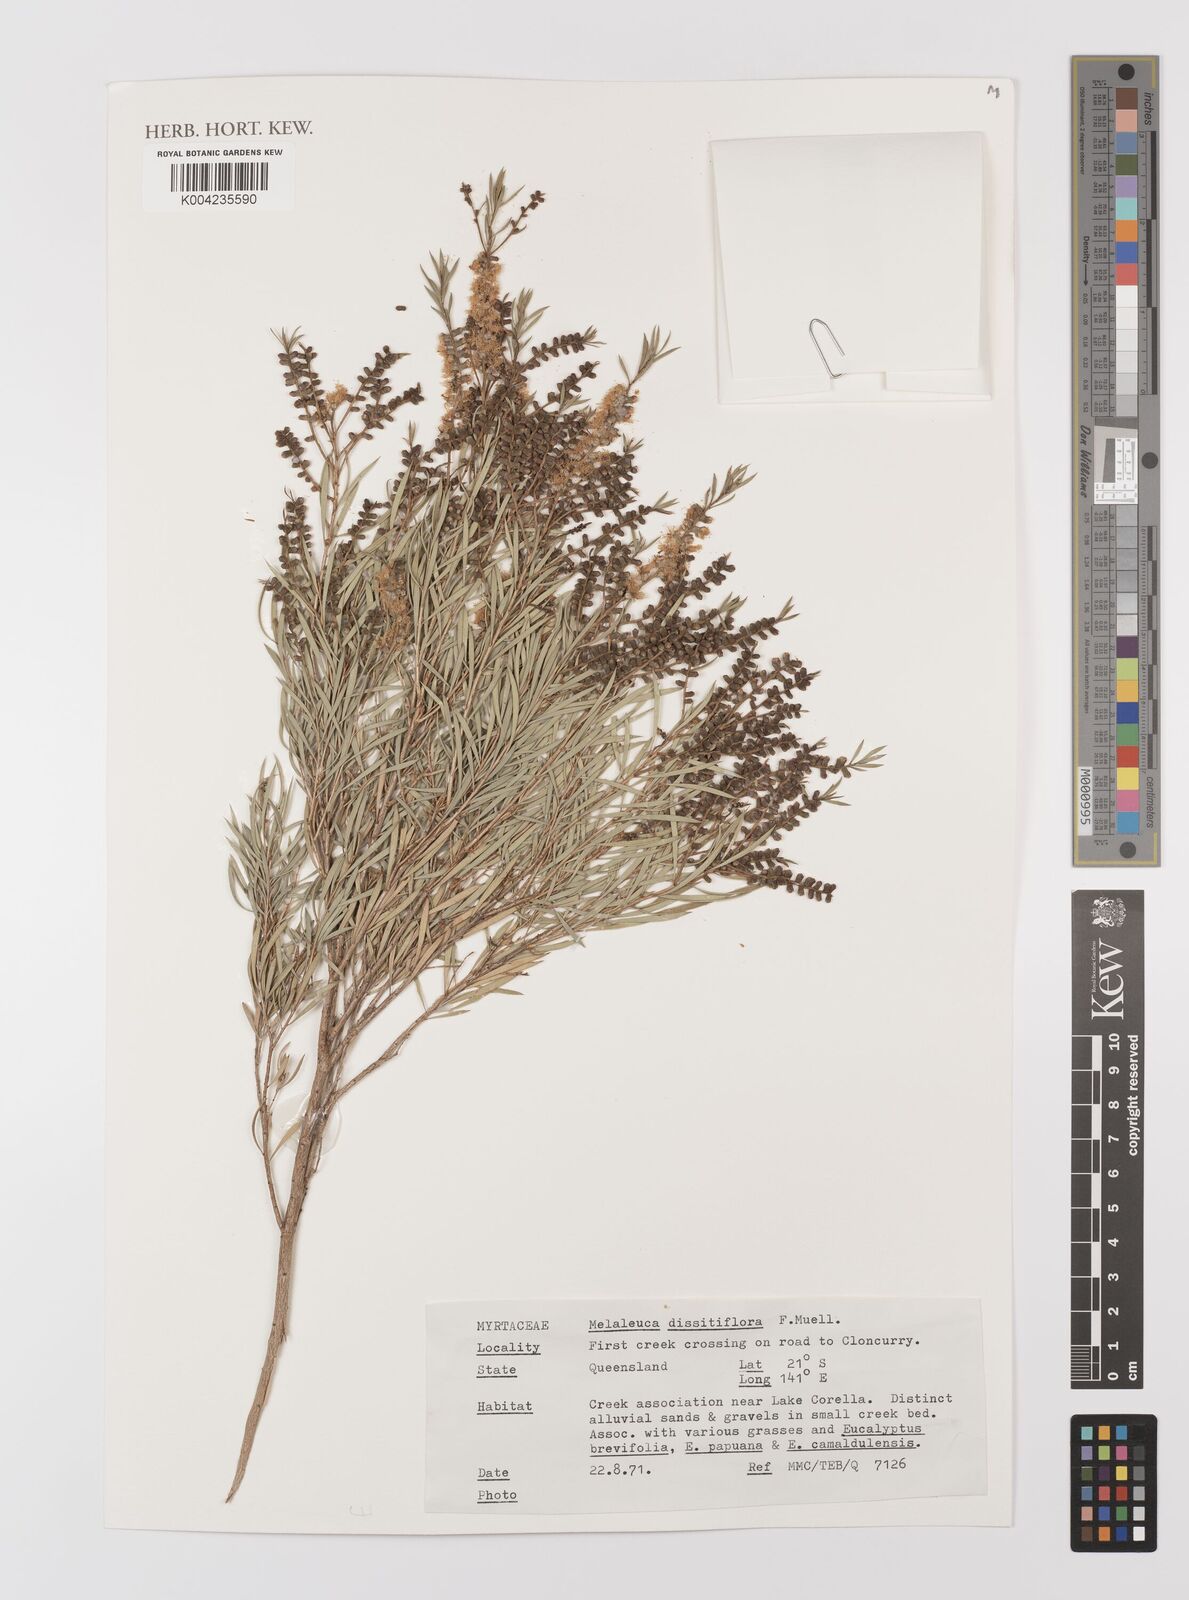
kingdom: Plantae
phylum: Tracheophyta
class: Magnoliopsida
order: Myrtales
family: Myrtaceae
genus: Melaleuca
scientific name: Melaleuca dissitiflora
